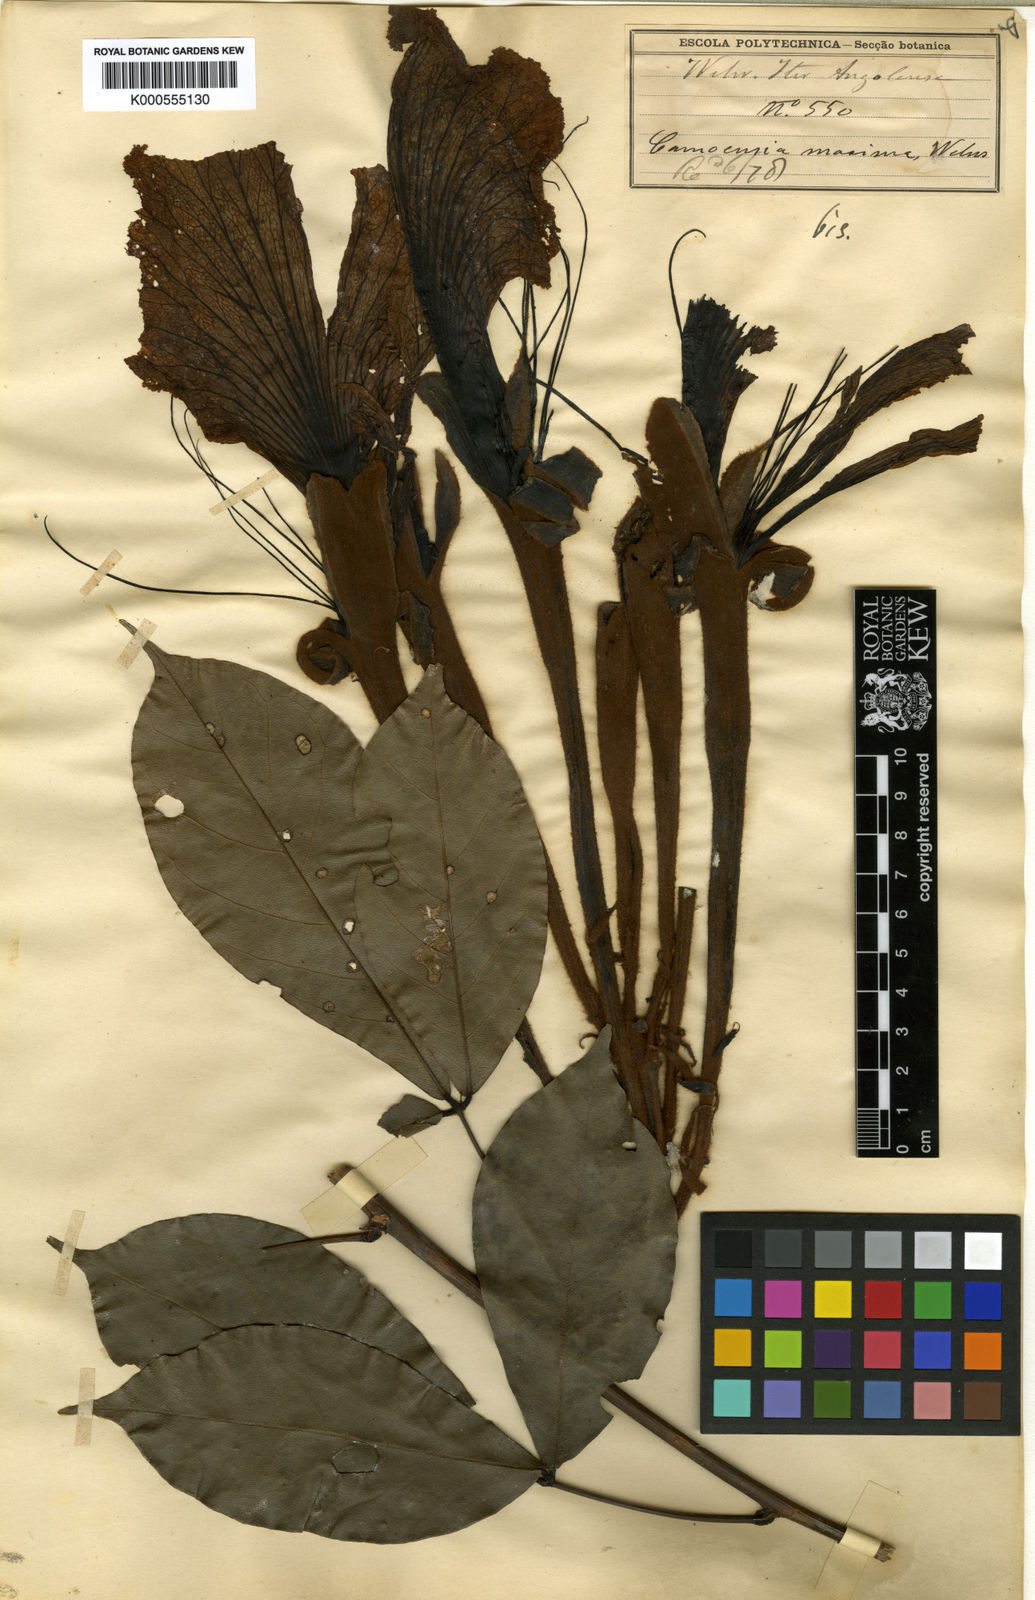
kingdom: Plantae
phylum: Tracheophyta
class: Magnoliopsida
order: Fabales
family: Fabaceae
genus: Camoensia
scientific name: Camoensia scandens
